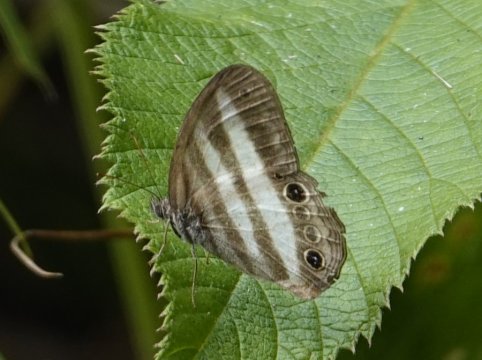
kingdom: Animalia
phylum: Arthropoda
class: Insecta
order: Lepidoptera
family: Nymphalidae
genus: Pareuptychia
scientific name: Pareuptychia hesione
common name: White Satyr
